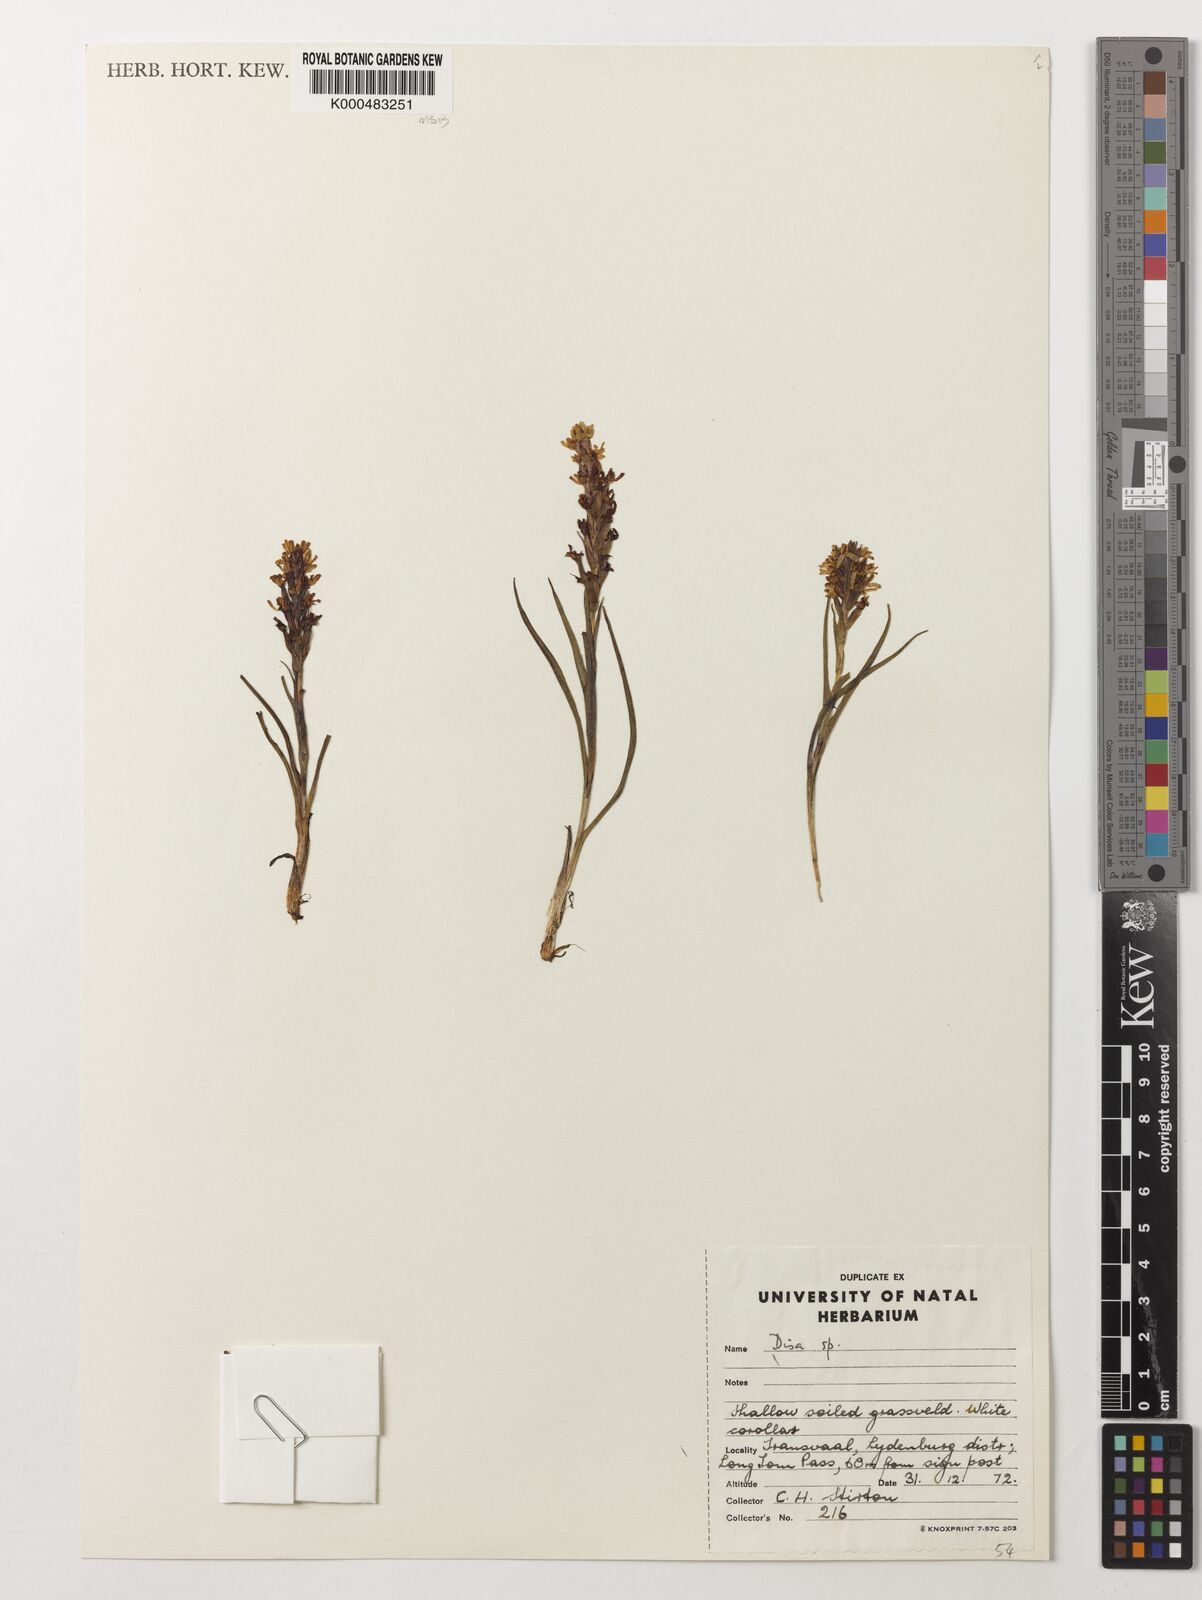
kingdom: Plantae
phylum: Tracheophyta
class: Liliopsida
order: Asparagales
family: Orchidaceae
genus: Disa
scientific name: Disa alticola
